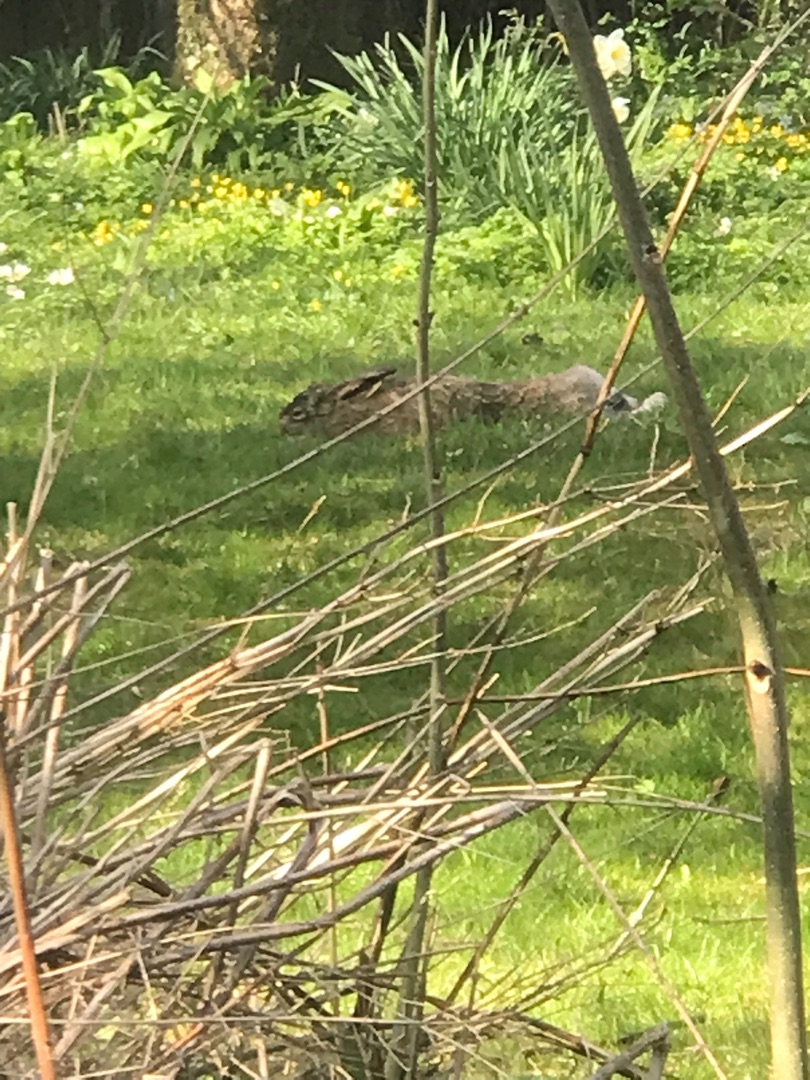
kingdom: Animalia
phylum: Chordata
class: Mammalia
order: Lagomorpha
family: Leporidae
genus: Lepus
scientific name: Lepus europaeus
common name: Hare
